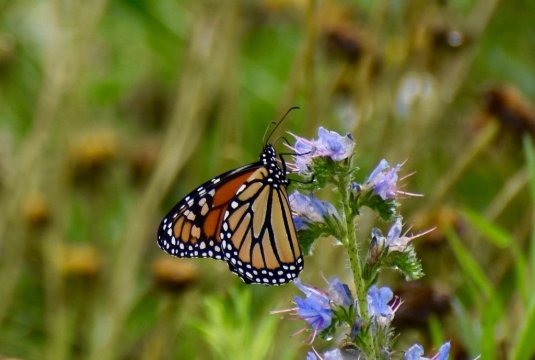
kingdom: Animalia
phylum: Arthropoda
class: Insecta
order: Lepidoptera
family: Nymphalidae
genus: Danaus
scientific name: Danaus plexippus
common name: Monarch
